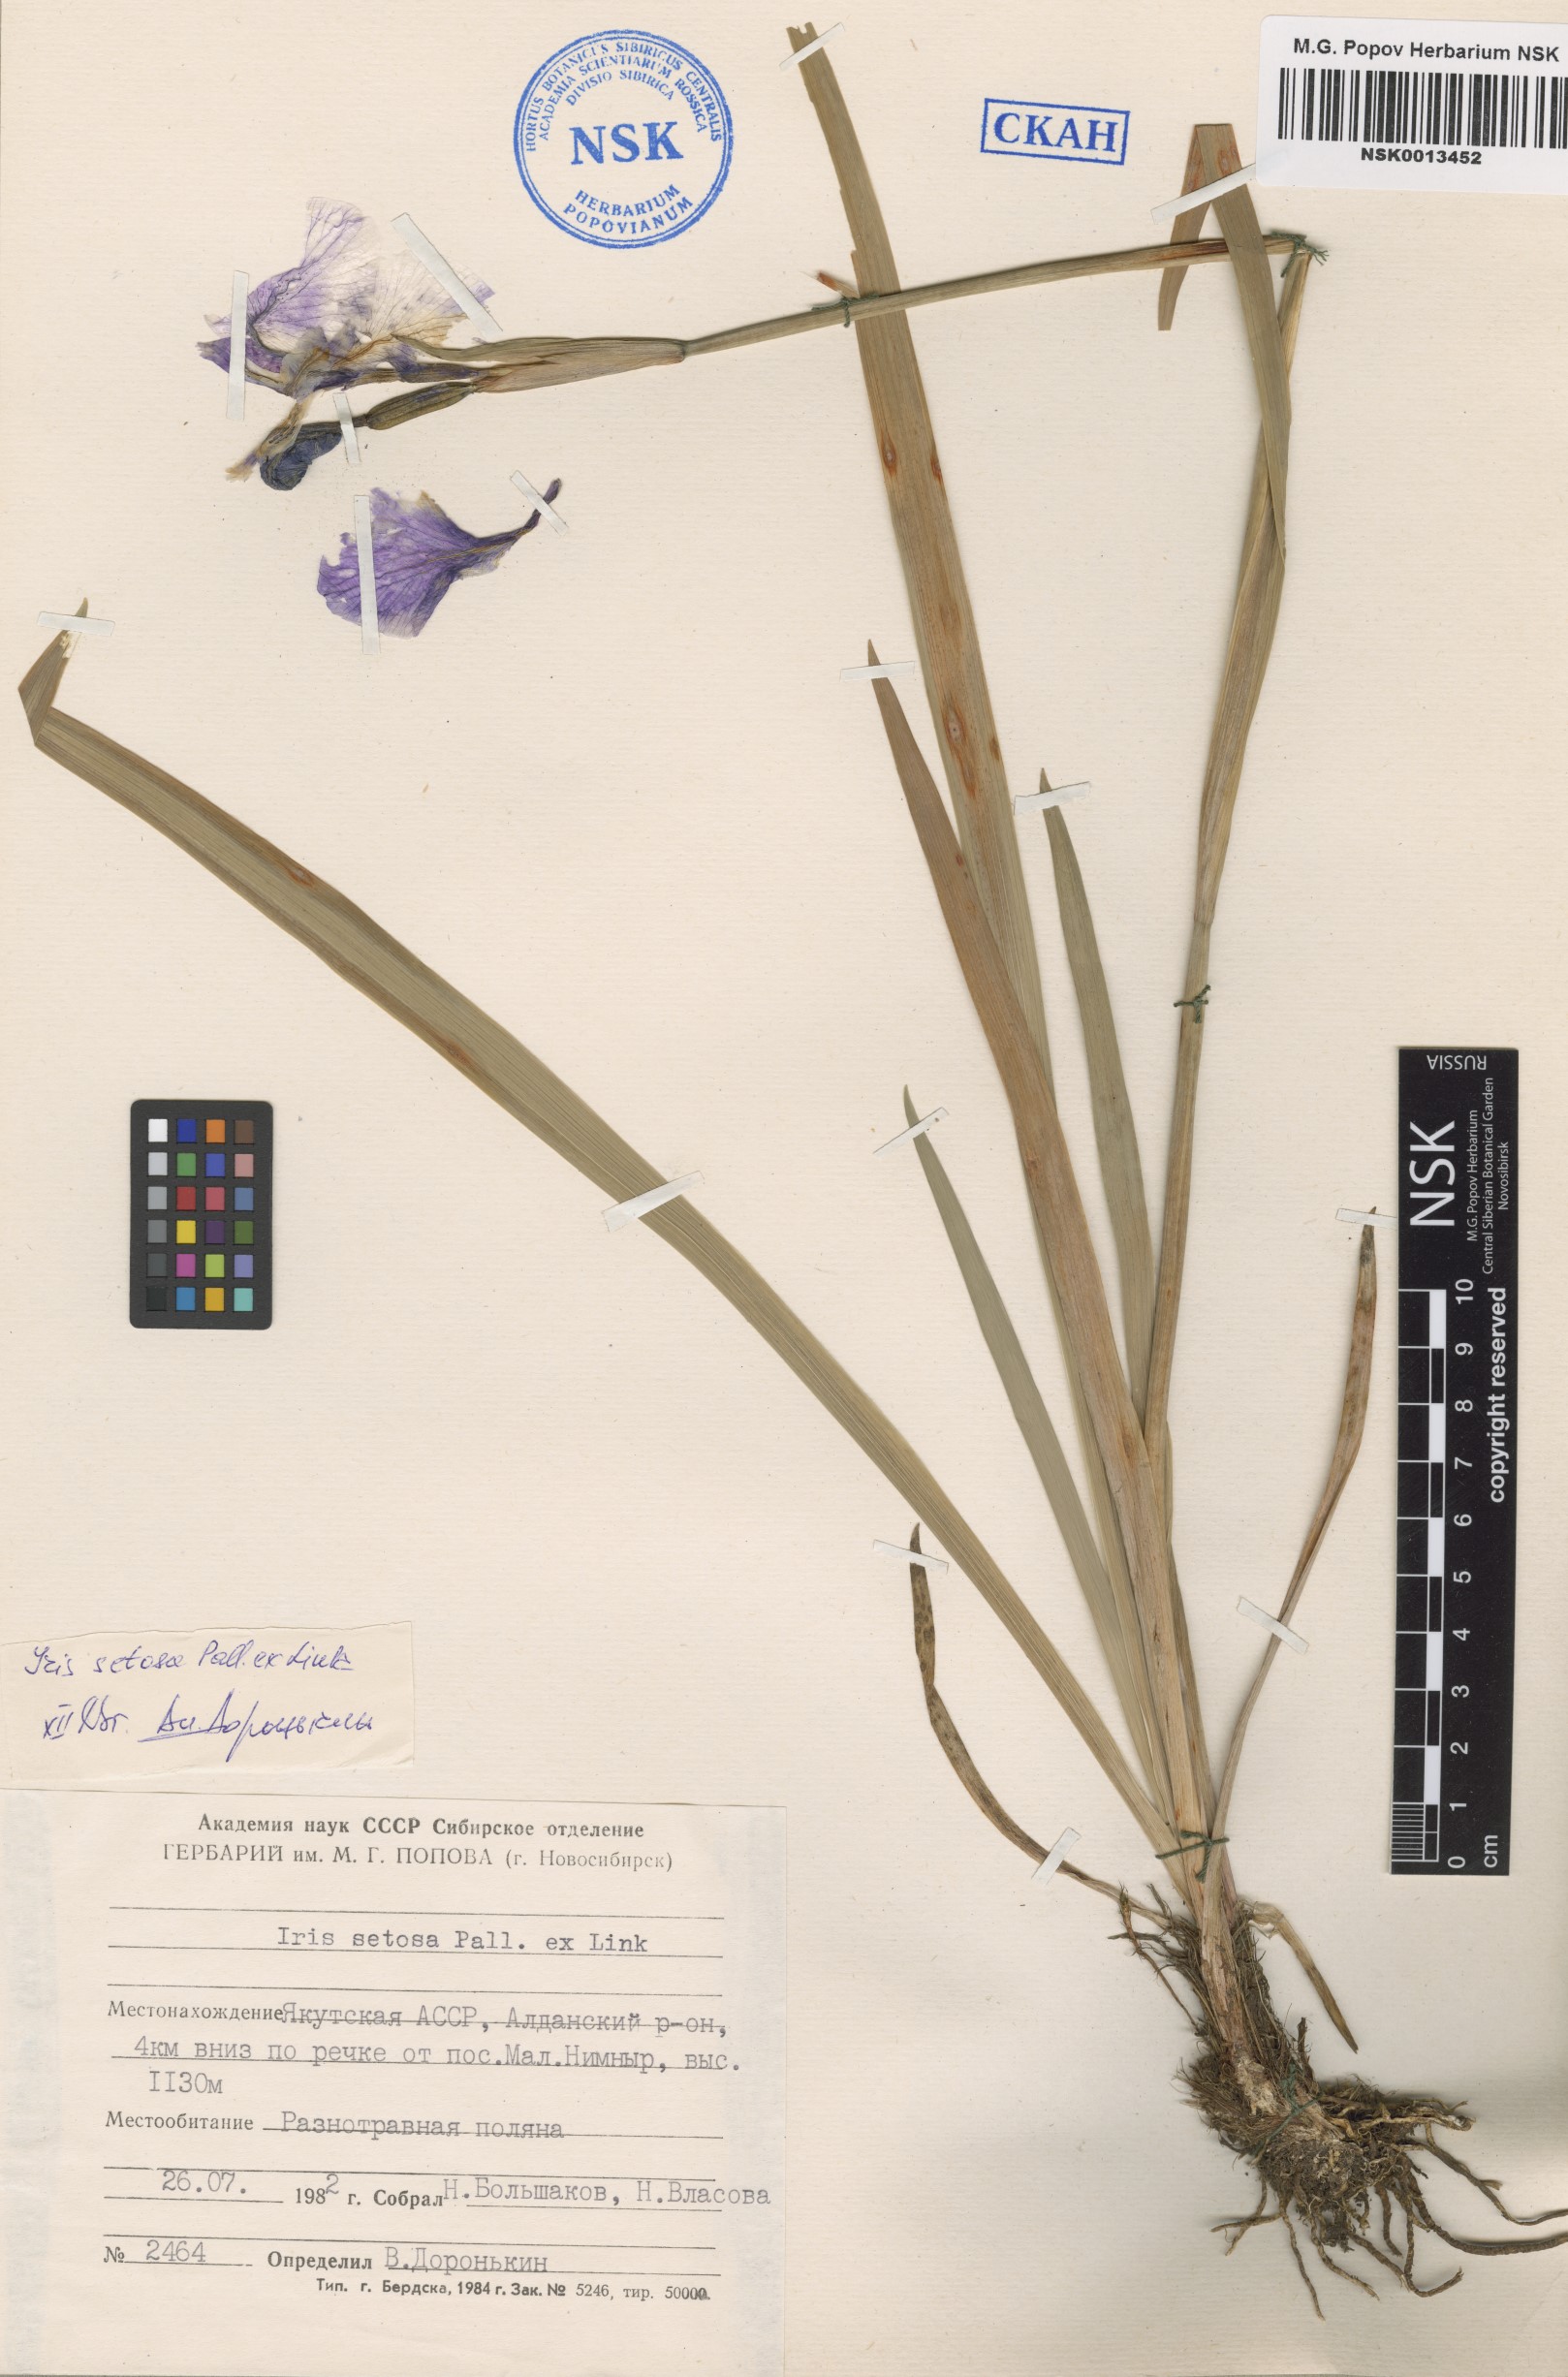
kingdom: Plantae
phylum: Tracheophyta
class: Liliopsida
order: Asparagales
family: Iridaceae
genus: Iris
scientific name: Iris setosa
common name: Arctic blue flag
